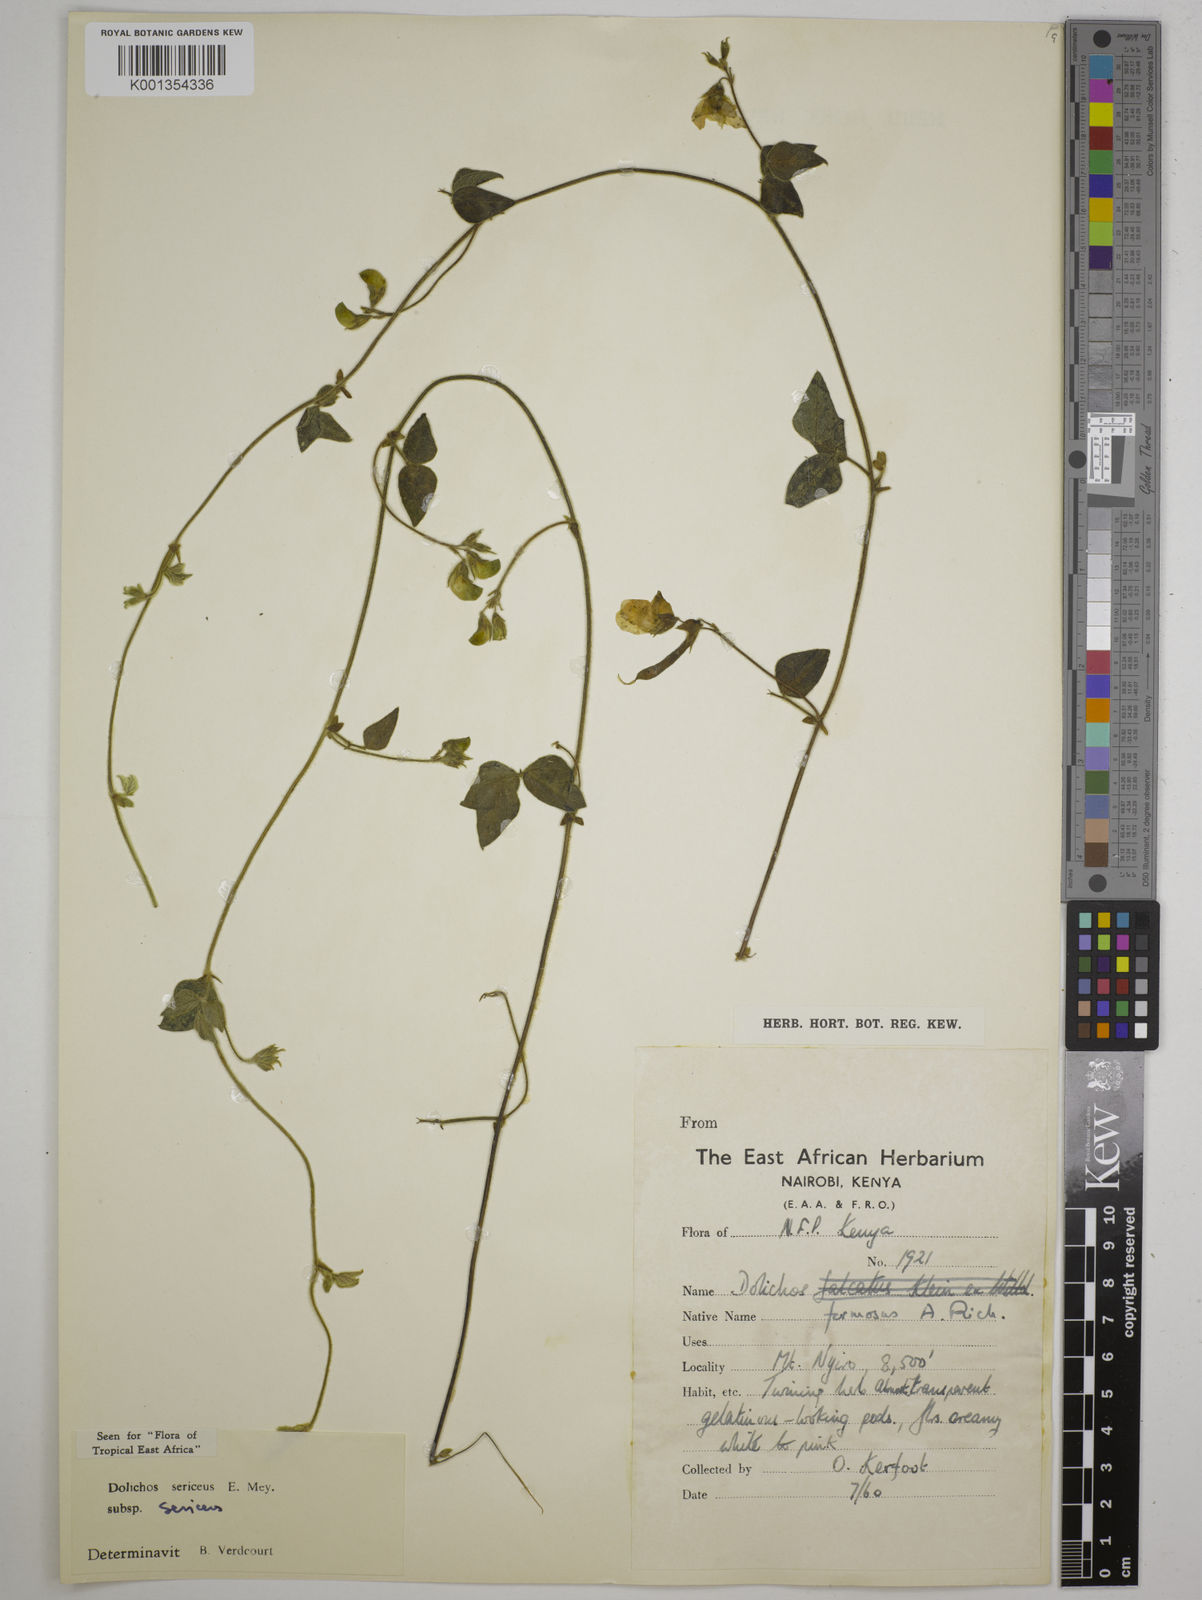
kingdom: Plantae
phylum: Tracheophyta
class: Magnoliopsida
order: Fabales
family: Fabaceae
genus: Dolichos
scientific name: Dolichos sericeus
